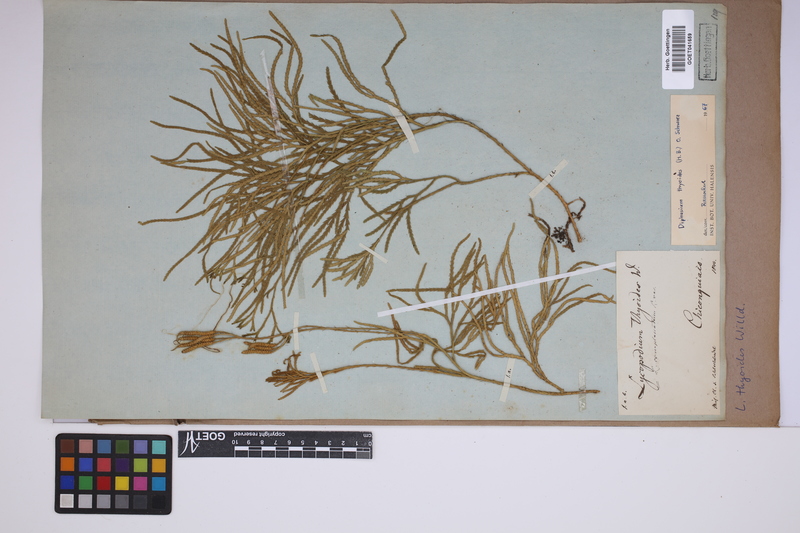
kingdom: Plantae
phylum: Tracheophyta
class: Lycopodiopsida
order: Lycopodiales
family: Lycopodiaceae
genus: Diphasiastrum
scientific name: Diphasiastrum thyoides
